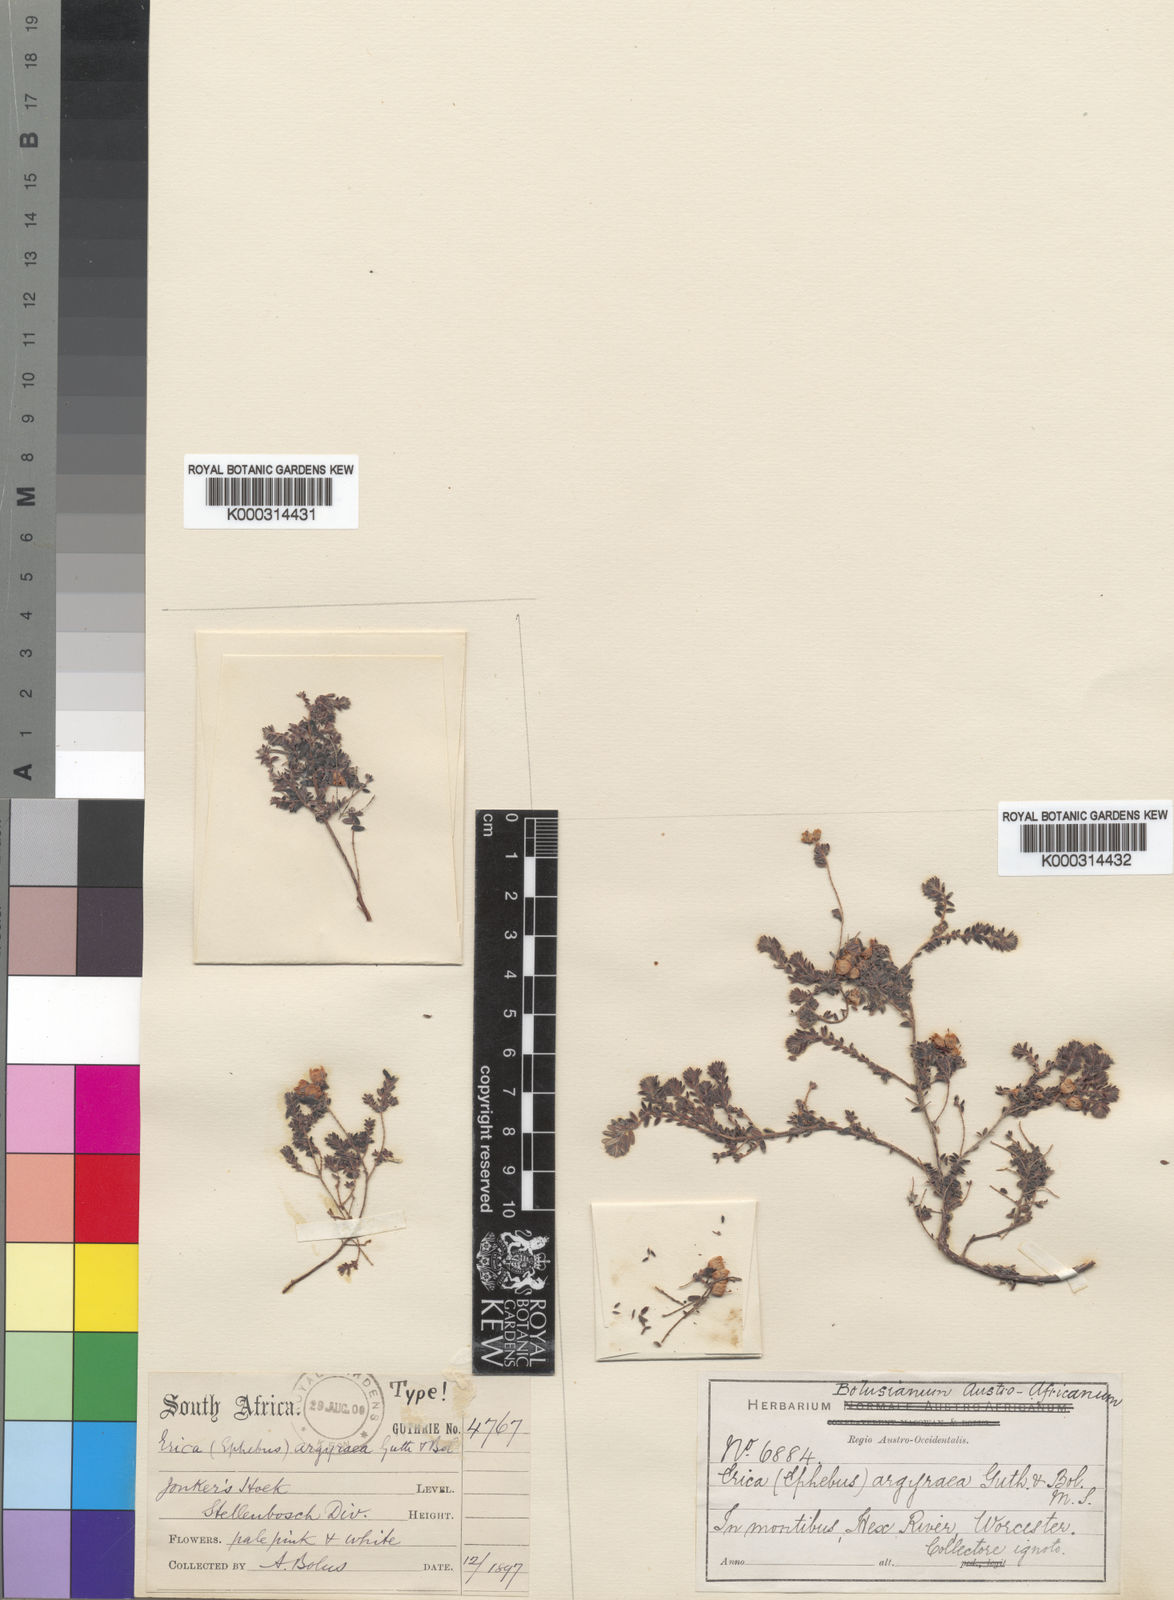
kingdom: Plantae
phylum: Tracheophyta
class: Magnoliopsida
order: Ericales
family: Ericaceae
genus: Erica
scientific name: Erica argyraea
